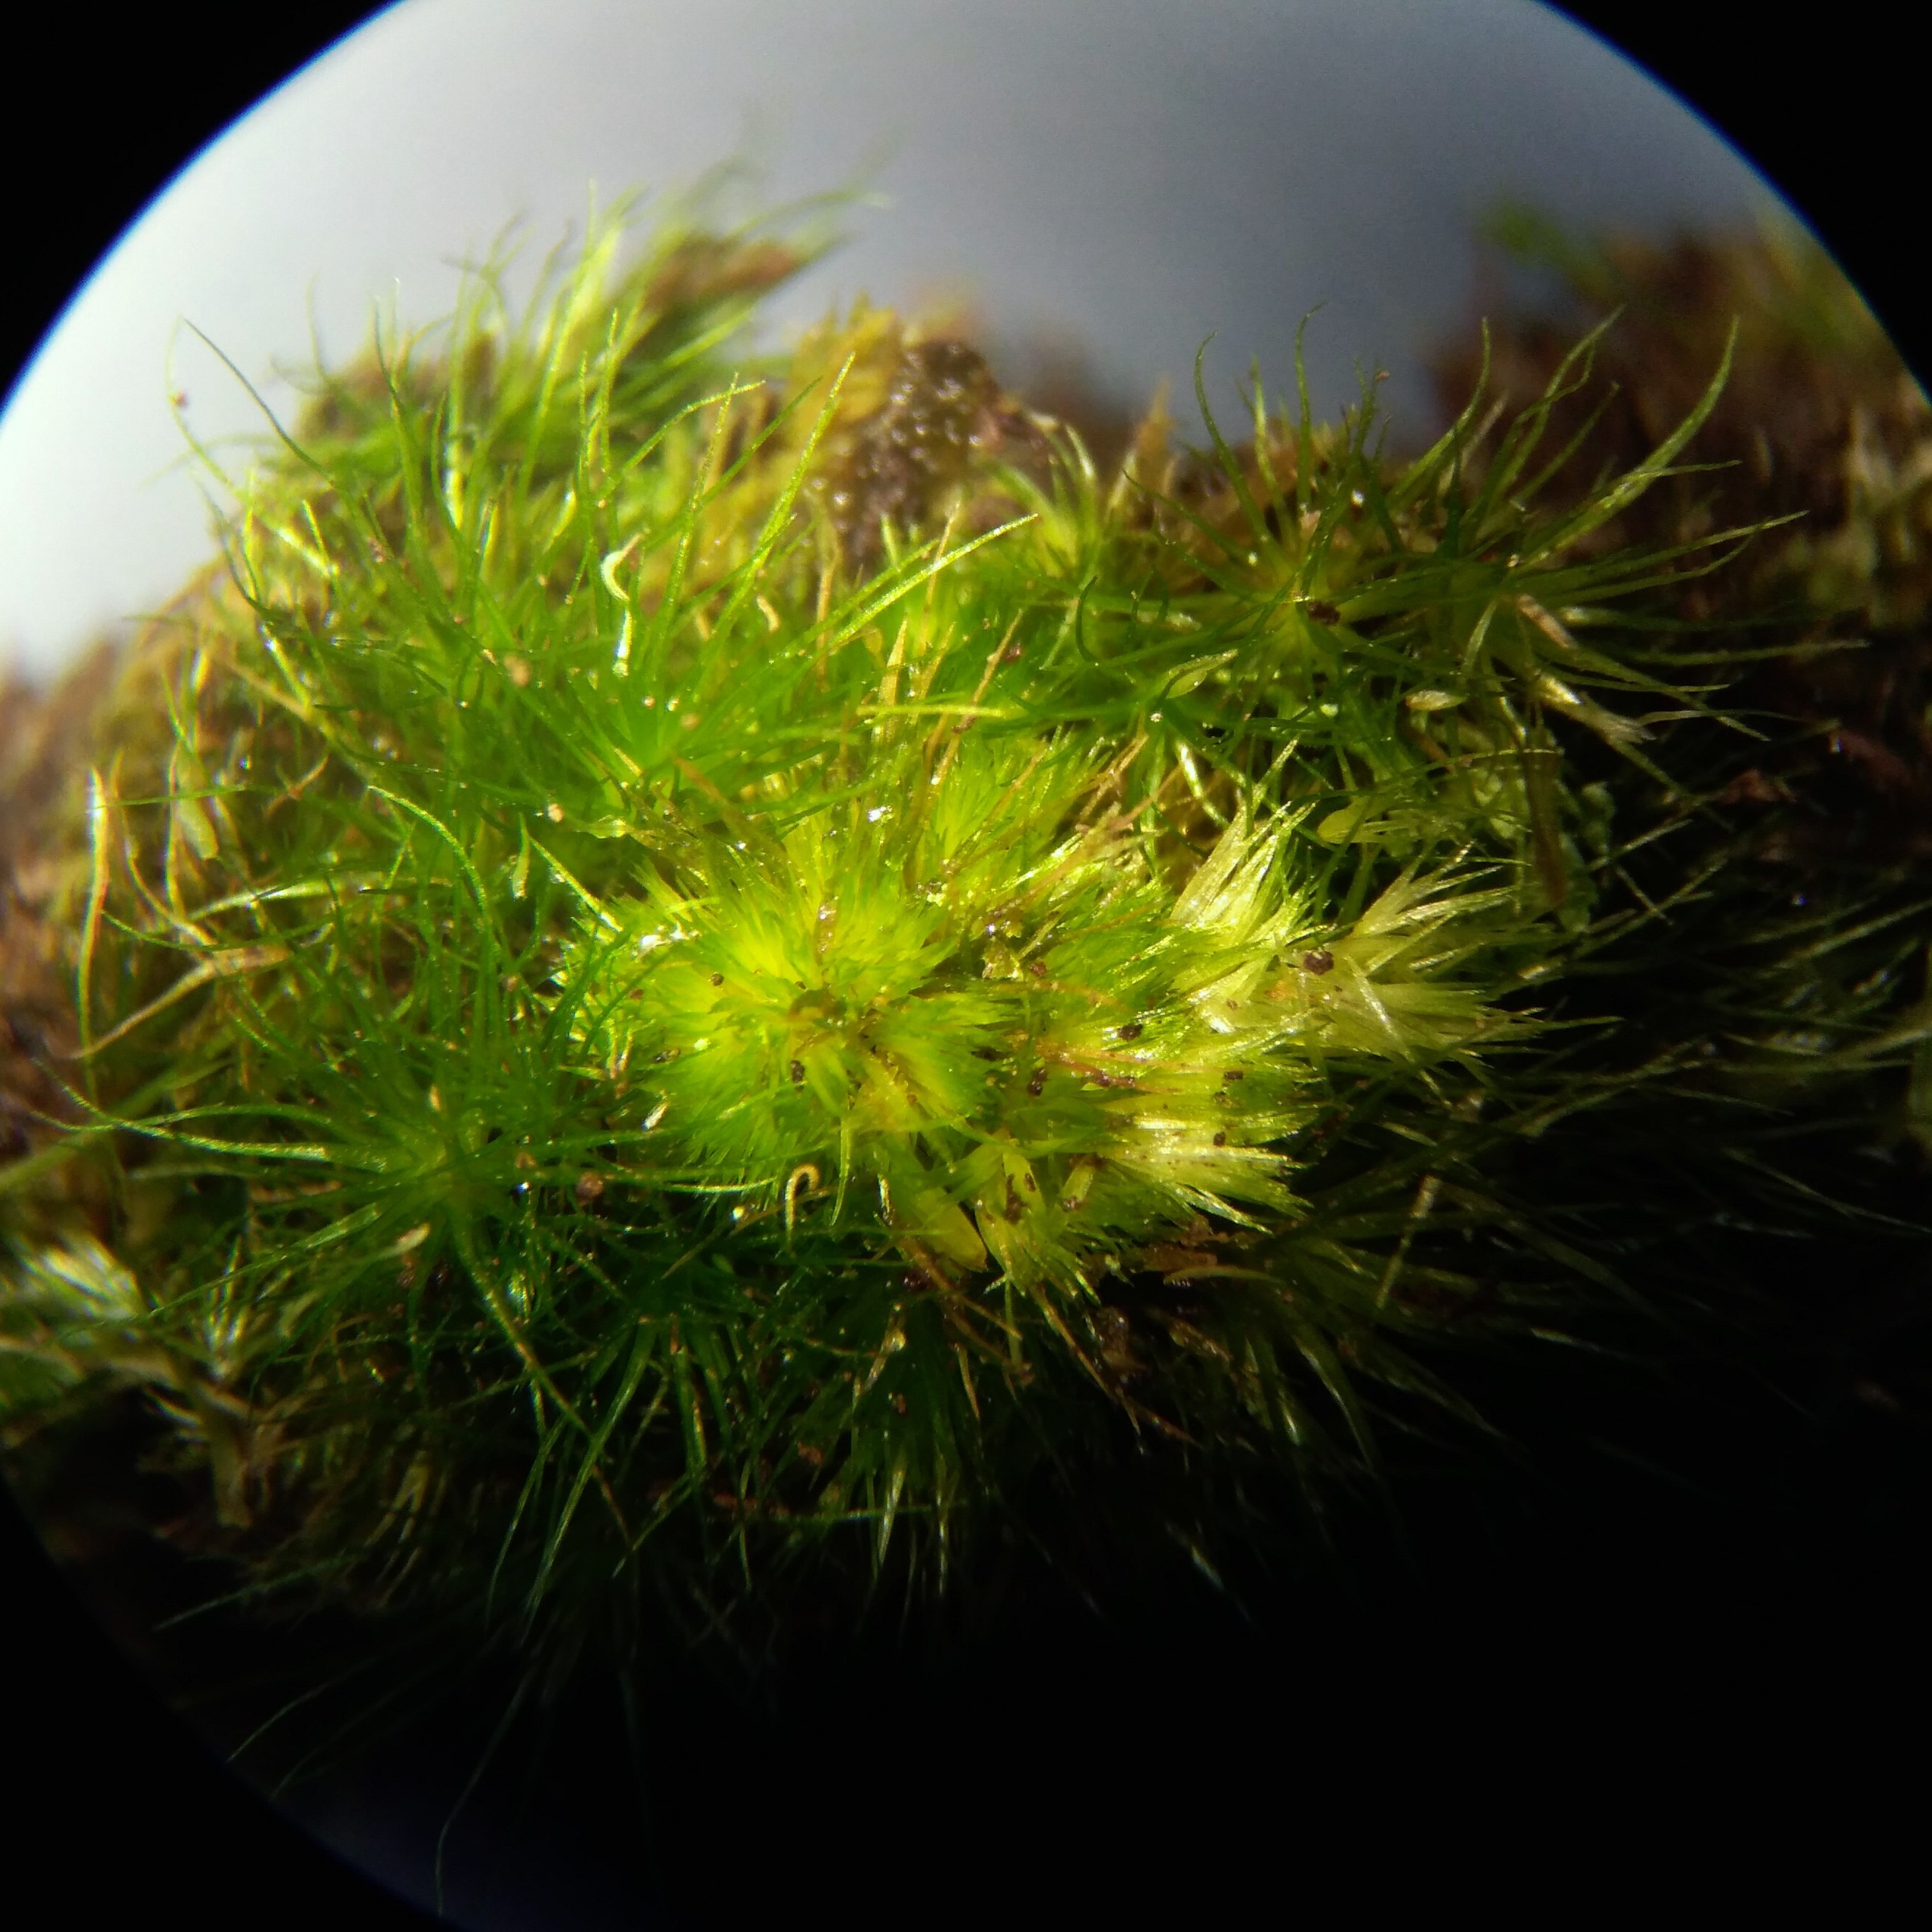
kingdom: Plantae
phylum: Bryophyta
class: Bryopsida
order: Dicranales
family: Leucobryaceae
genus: Campylopus
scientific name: Campylopus fragilis
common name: Skør bredribbe
